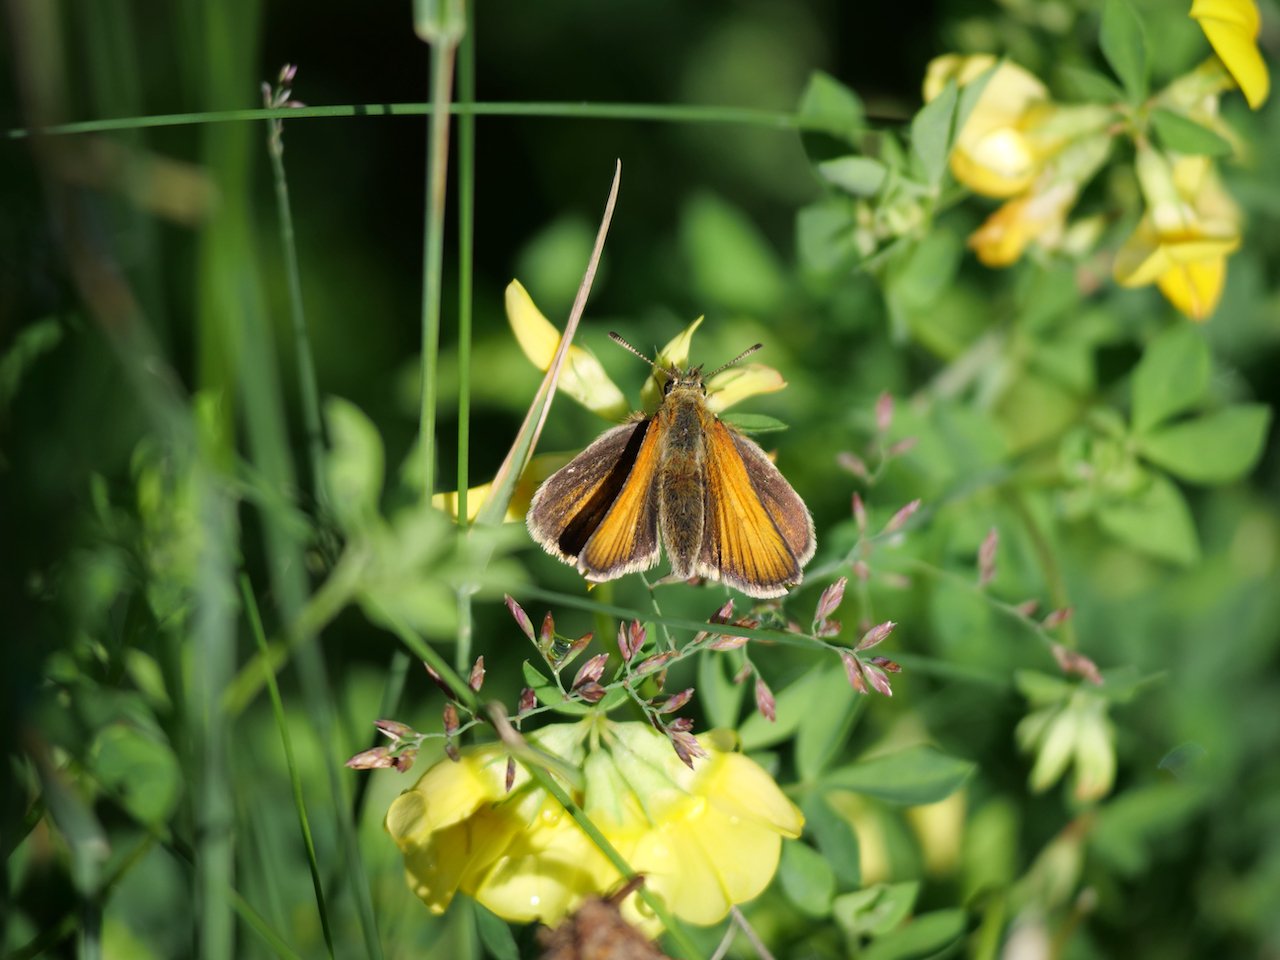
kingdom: Animalia
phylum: Arthropoda
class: Insecta
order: Lepidoptera
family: Hesperiidae
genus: Thymelicus
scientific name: Thymelicus lineola
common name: European Skipper
